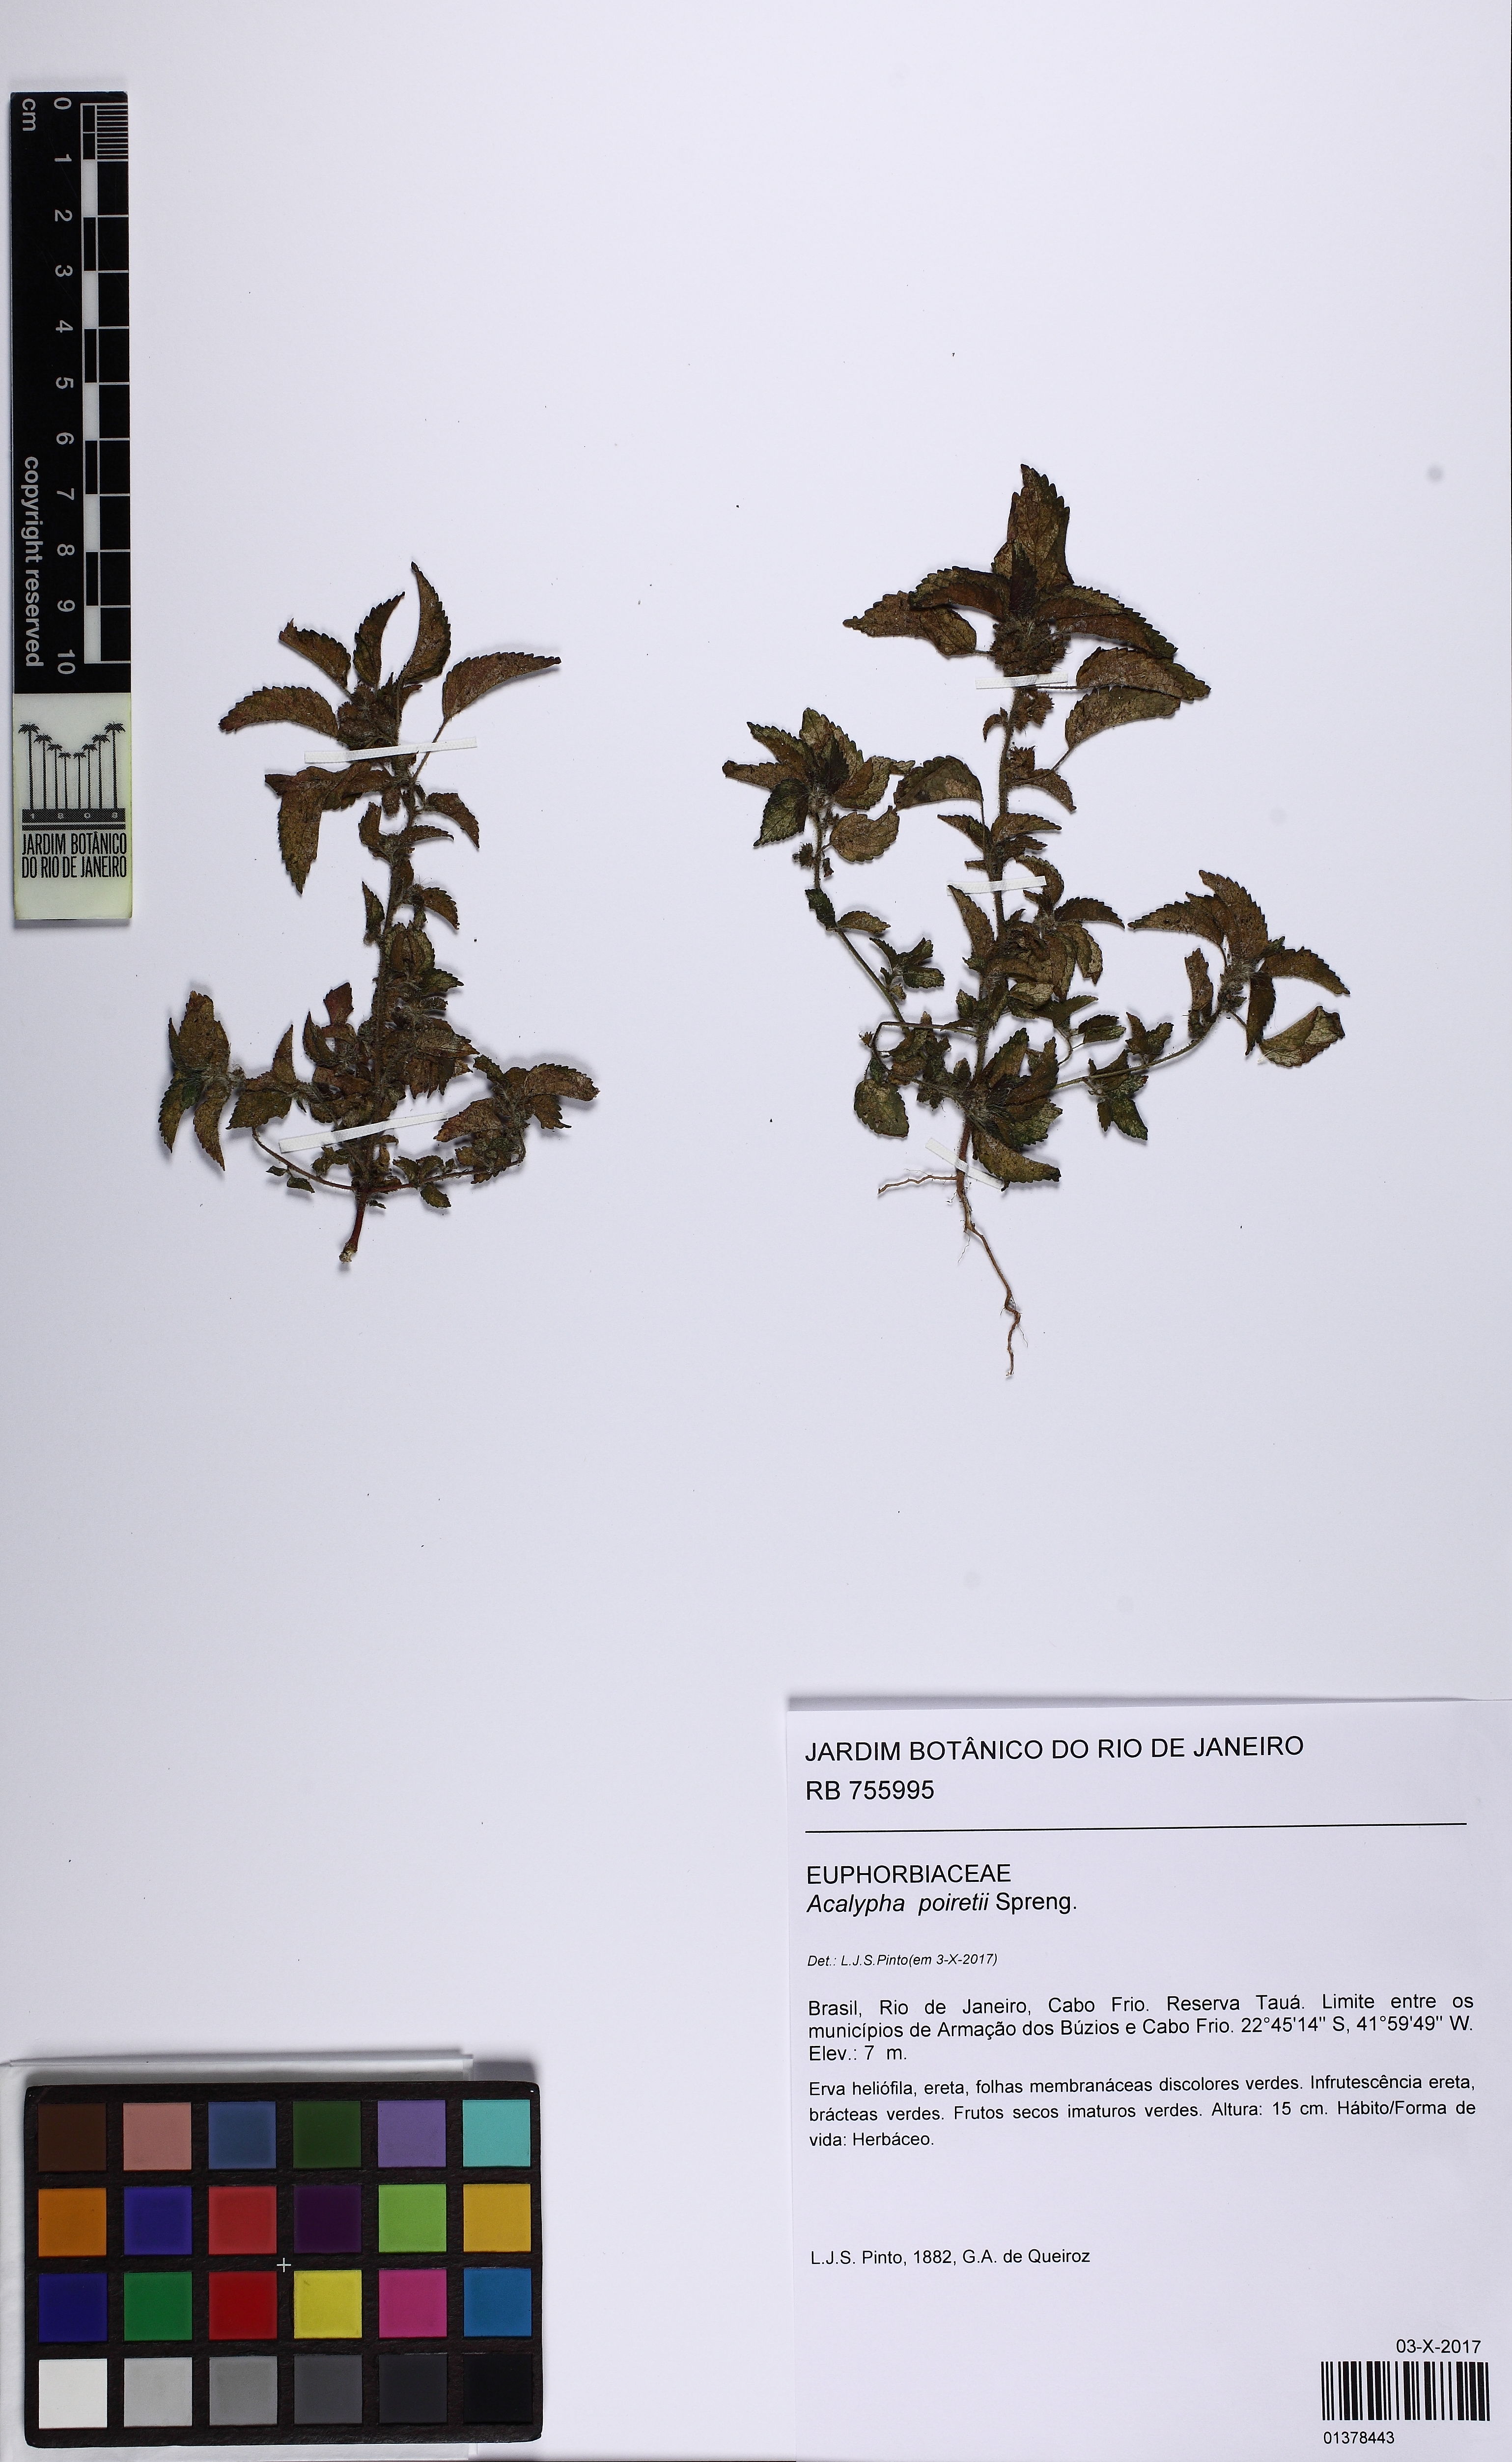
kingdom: Plantae
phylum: Tracheophyta
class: Magnoliopsida
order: Malpighiales
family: Euphorbiaceae
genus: Acalypha
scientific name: Acalypha poiretii
